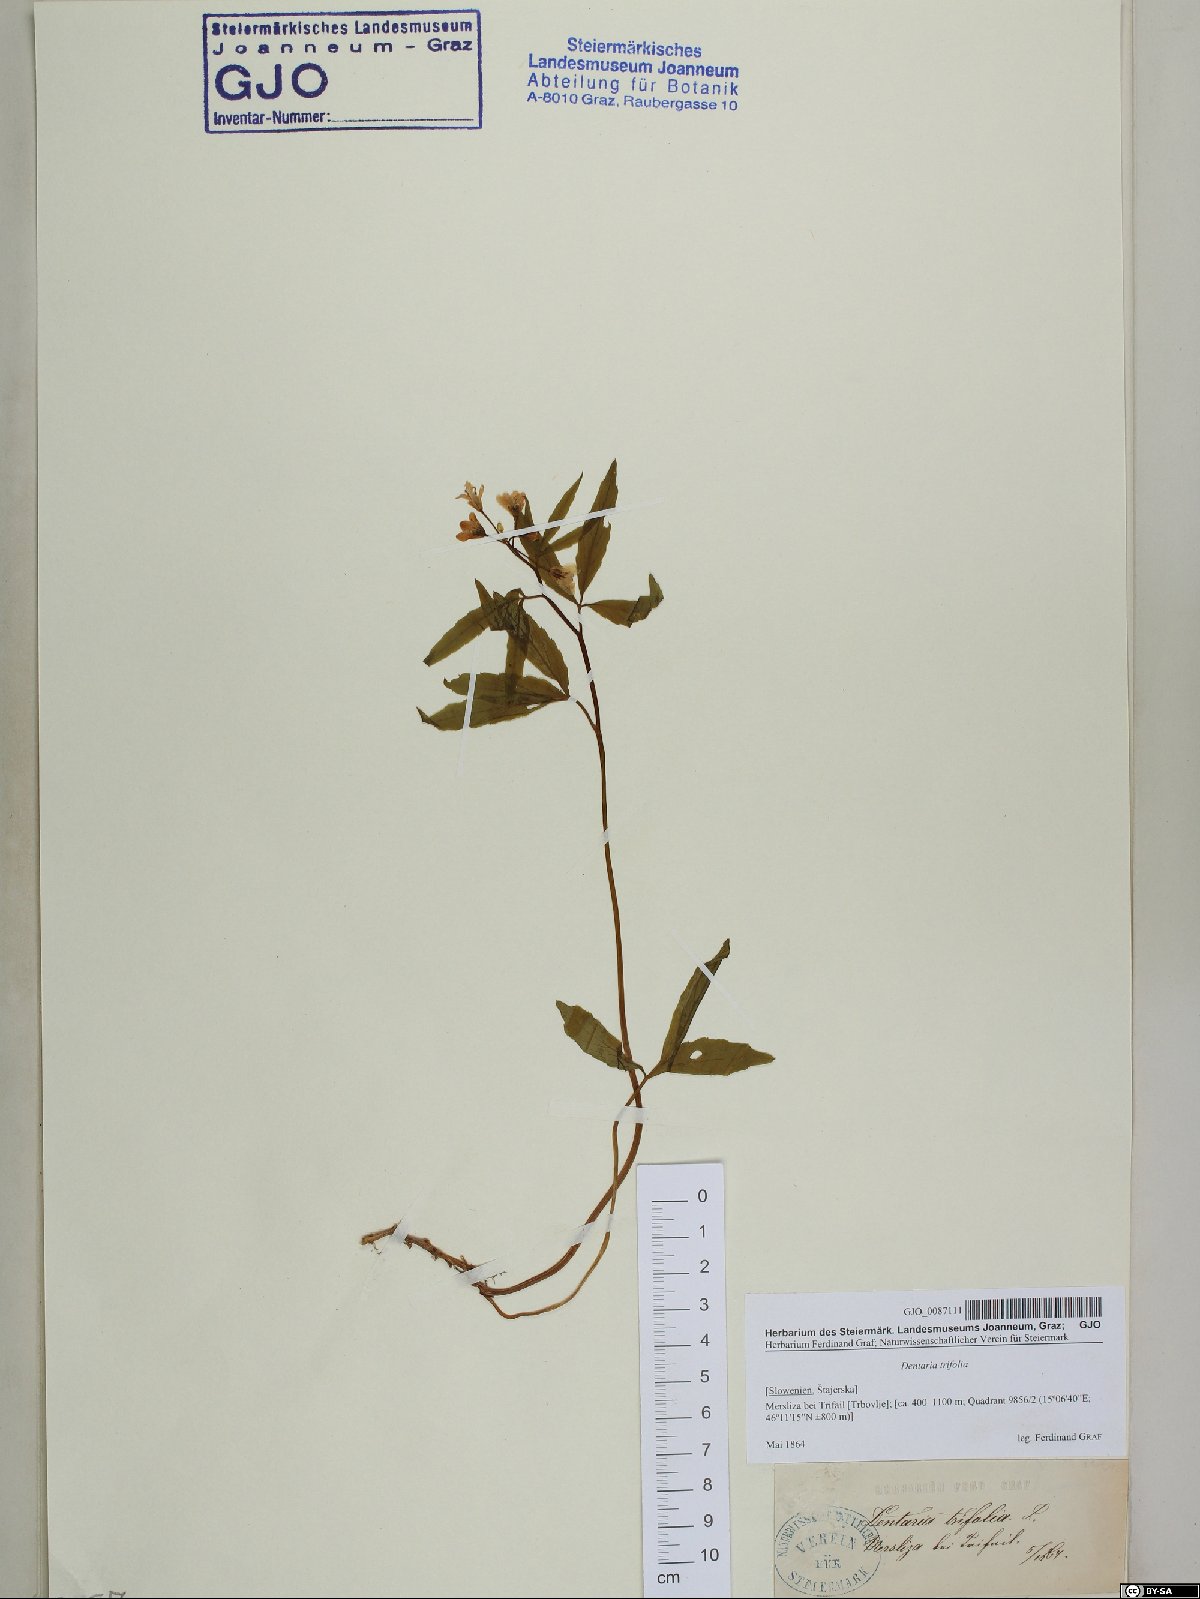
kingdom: Plantae
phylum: Tracheophyta
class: Magnoliopsida
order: Brassicales
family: Brassicaceae
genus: Cardamine
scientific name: Cardamine waldsteinii
